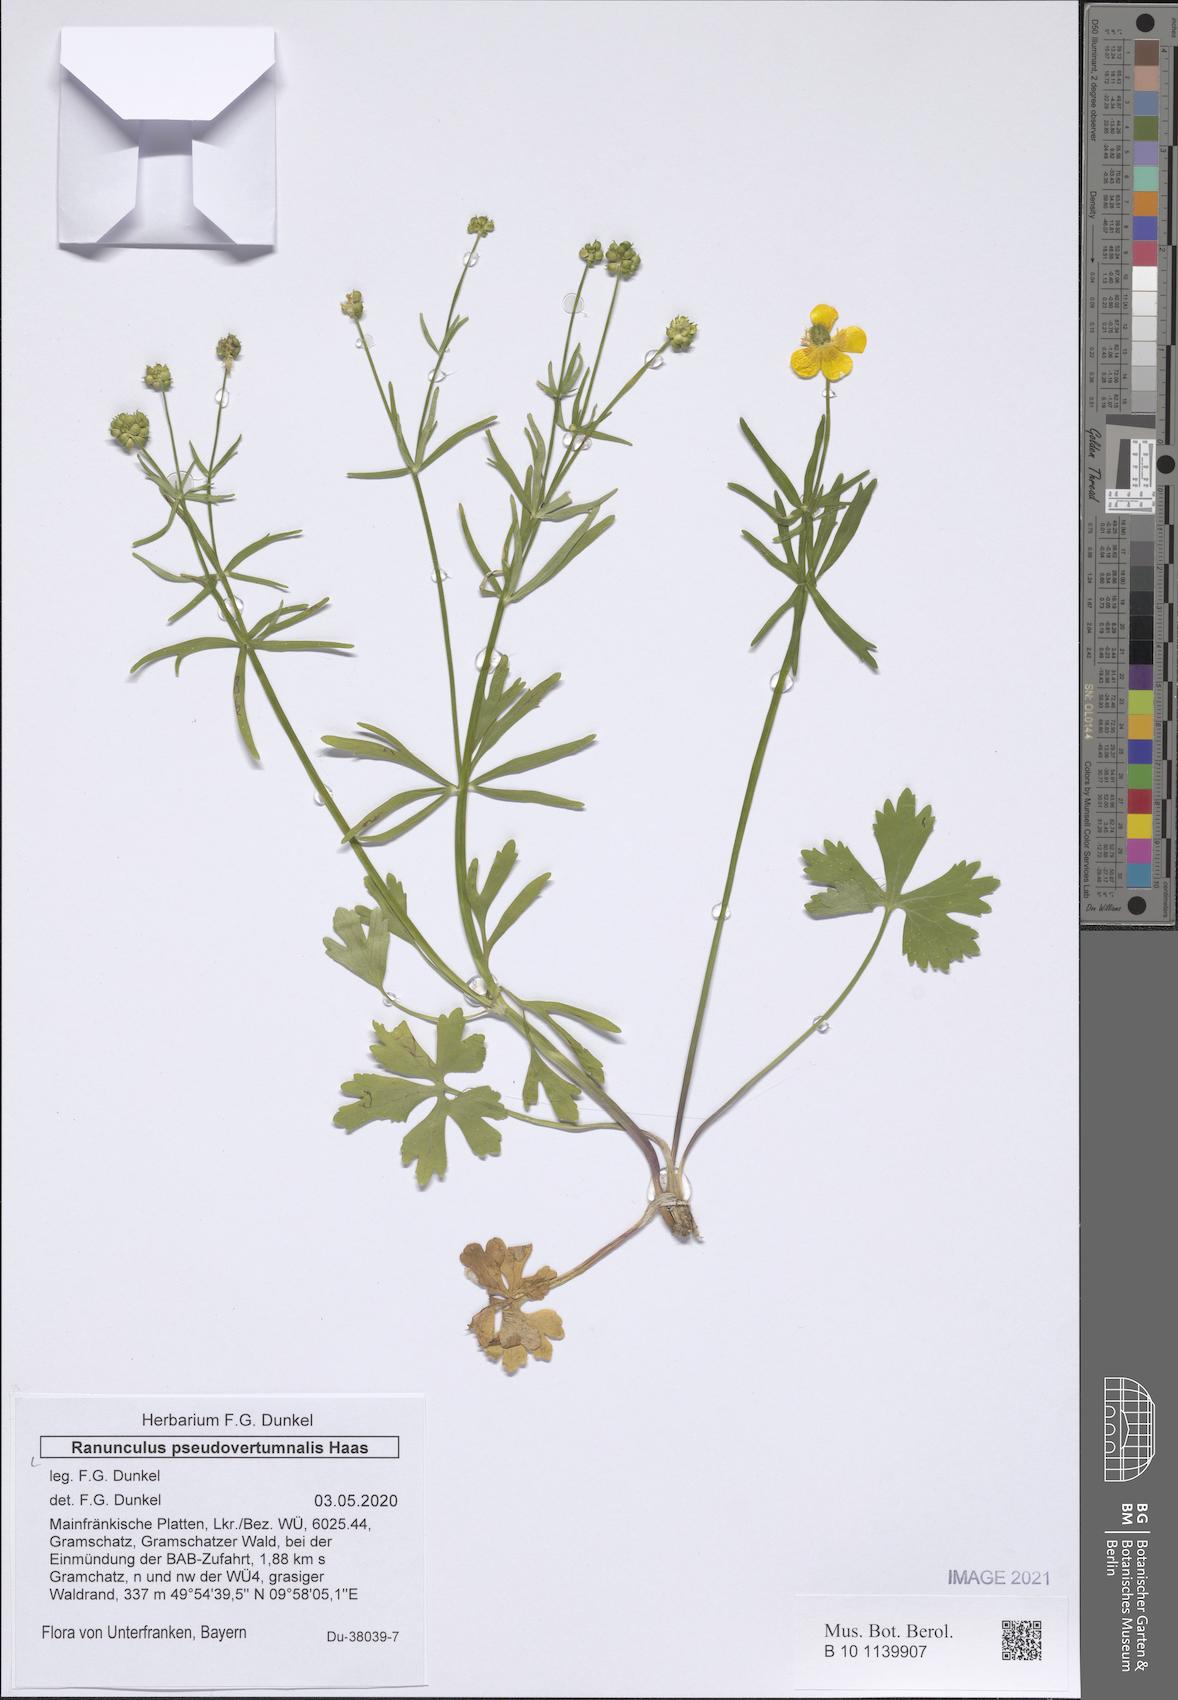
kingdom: Plantae
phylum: Tracheophyta
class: Magnoliopsida
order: Ranunculales
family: Ranunculaceae
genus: Ranunculus
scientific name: Ranunculus pseudovertumnalis
